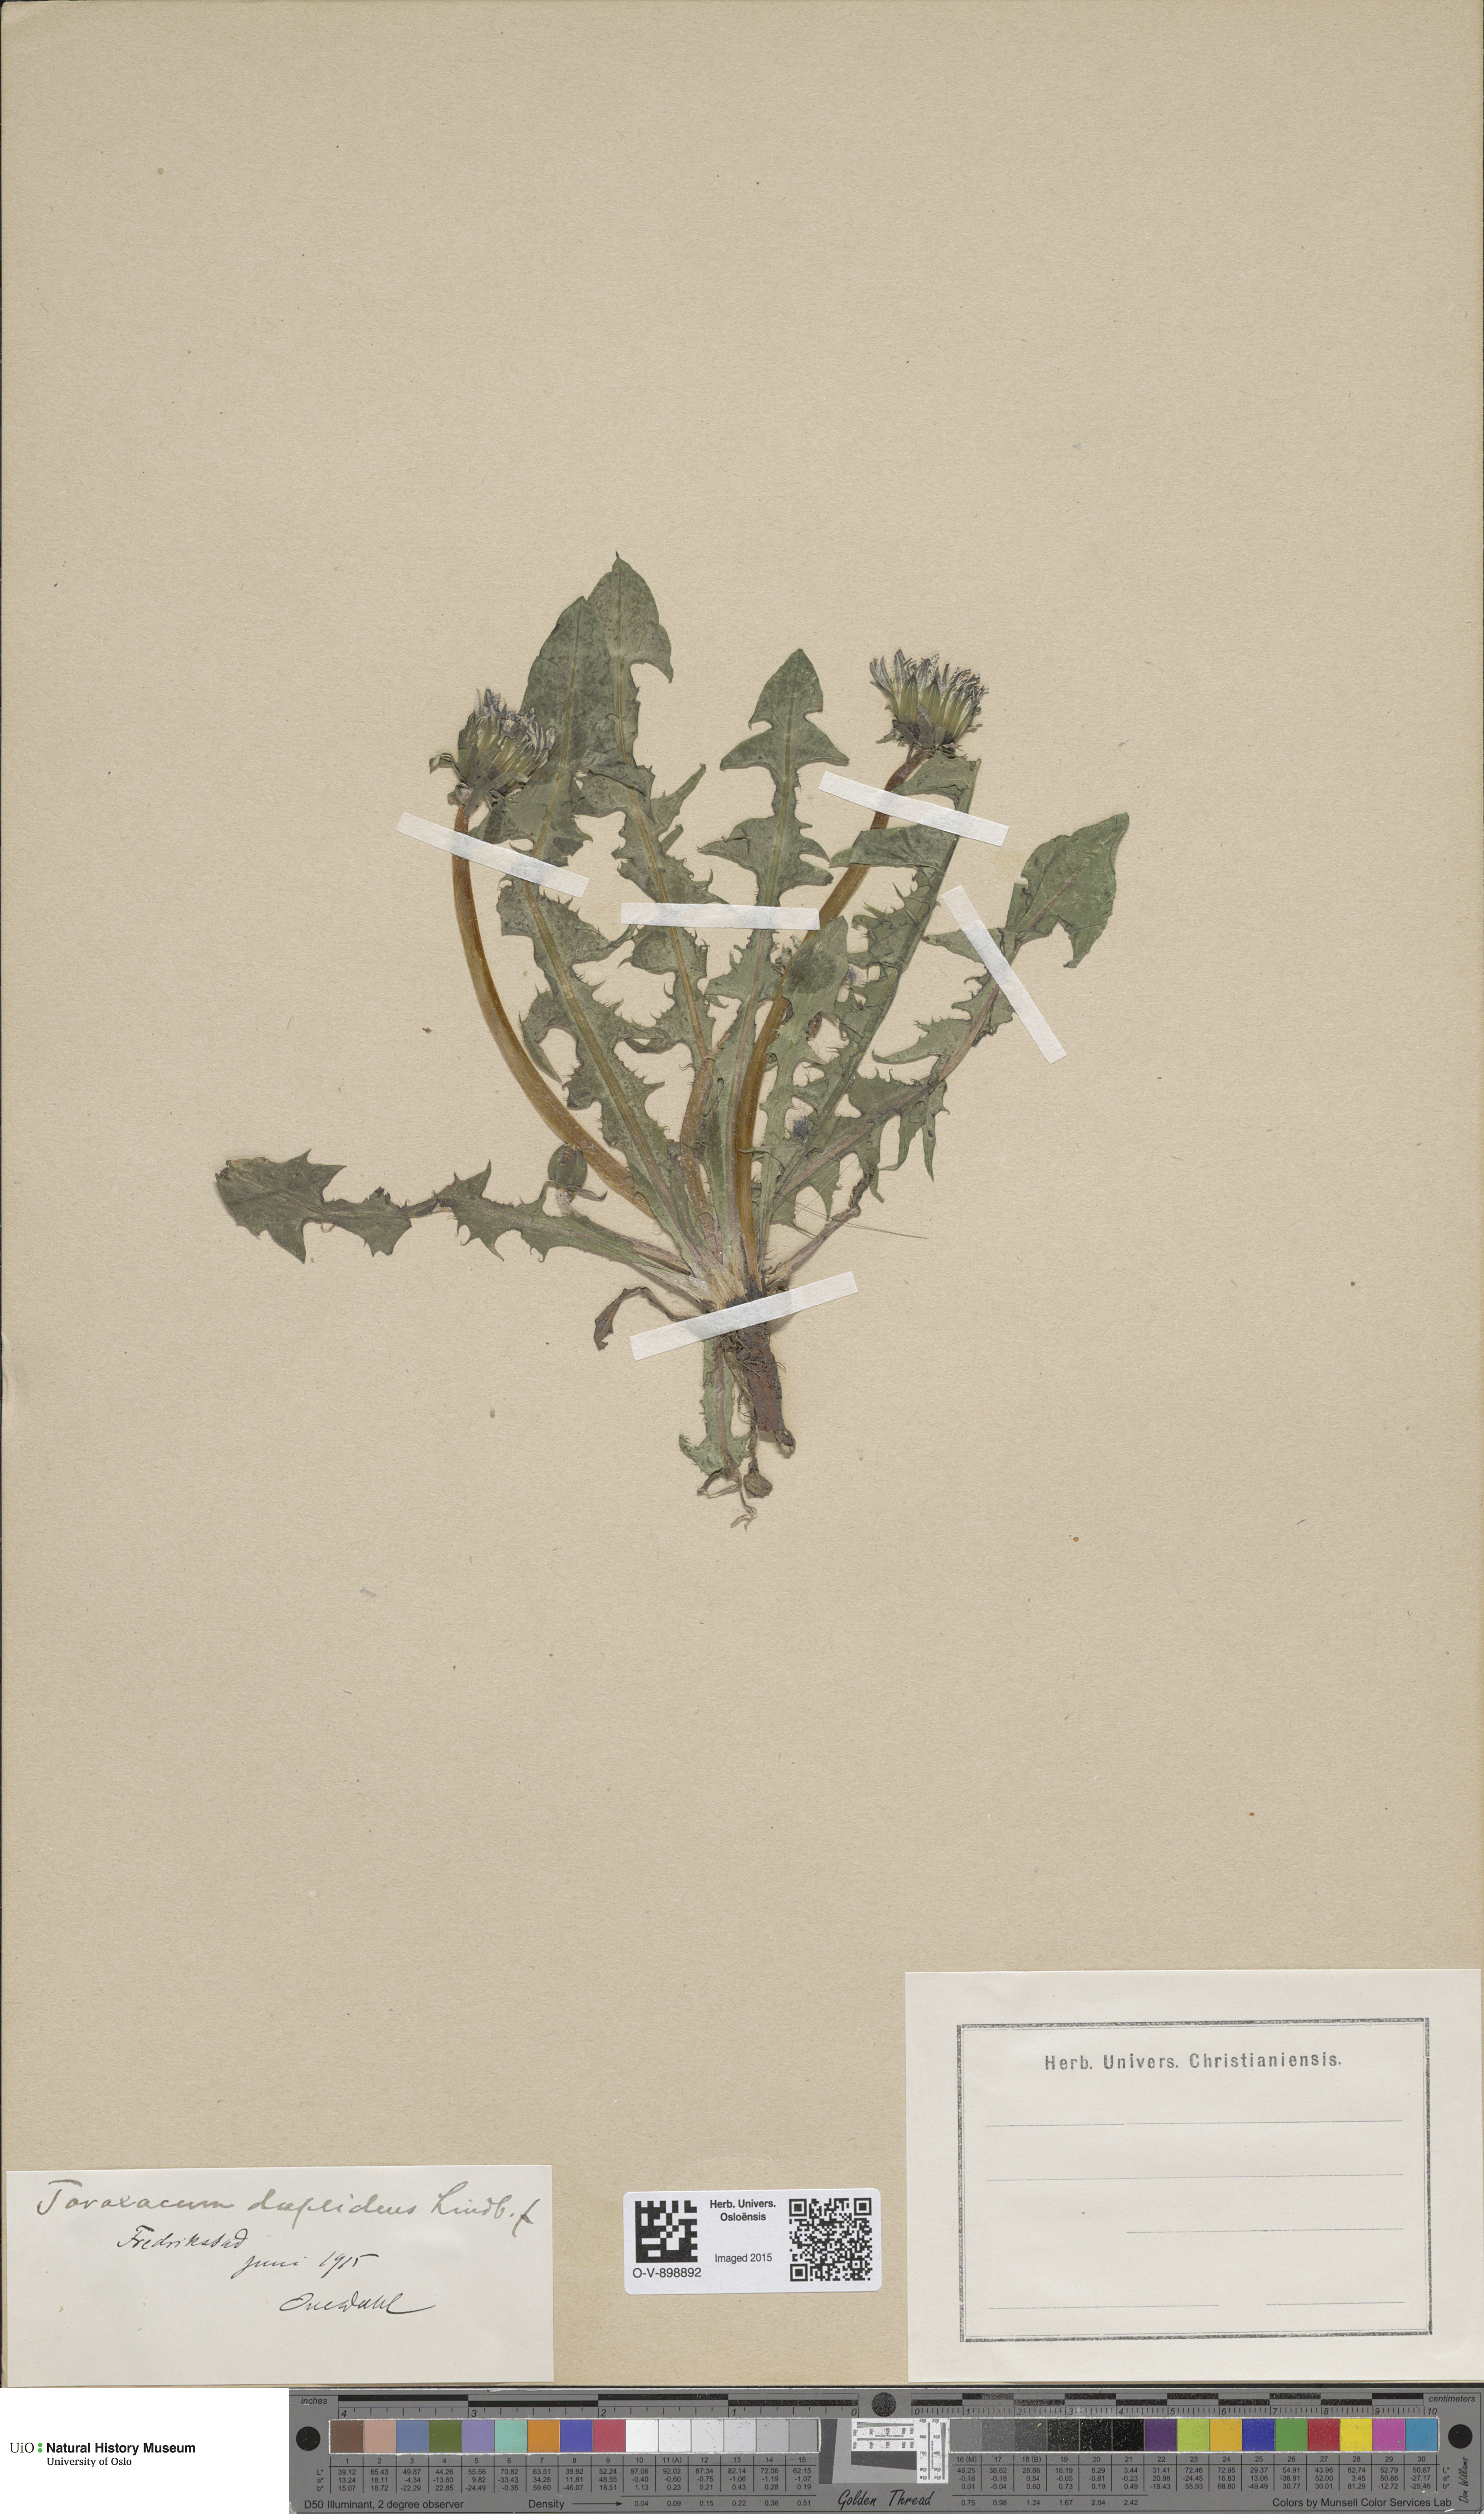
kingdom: Plantae
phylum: Tracheophyta
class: Magnoliopsida
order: Asterales
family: Asteraceae
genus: Taraxacum
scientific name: Taraxacum ostenfeldii
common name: Ostenfeld's dandelion
